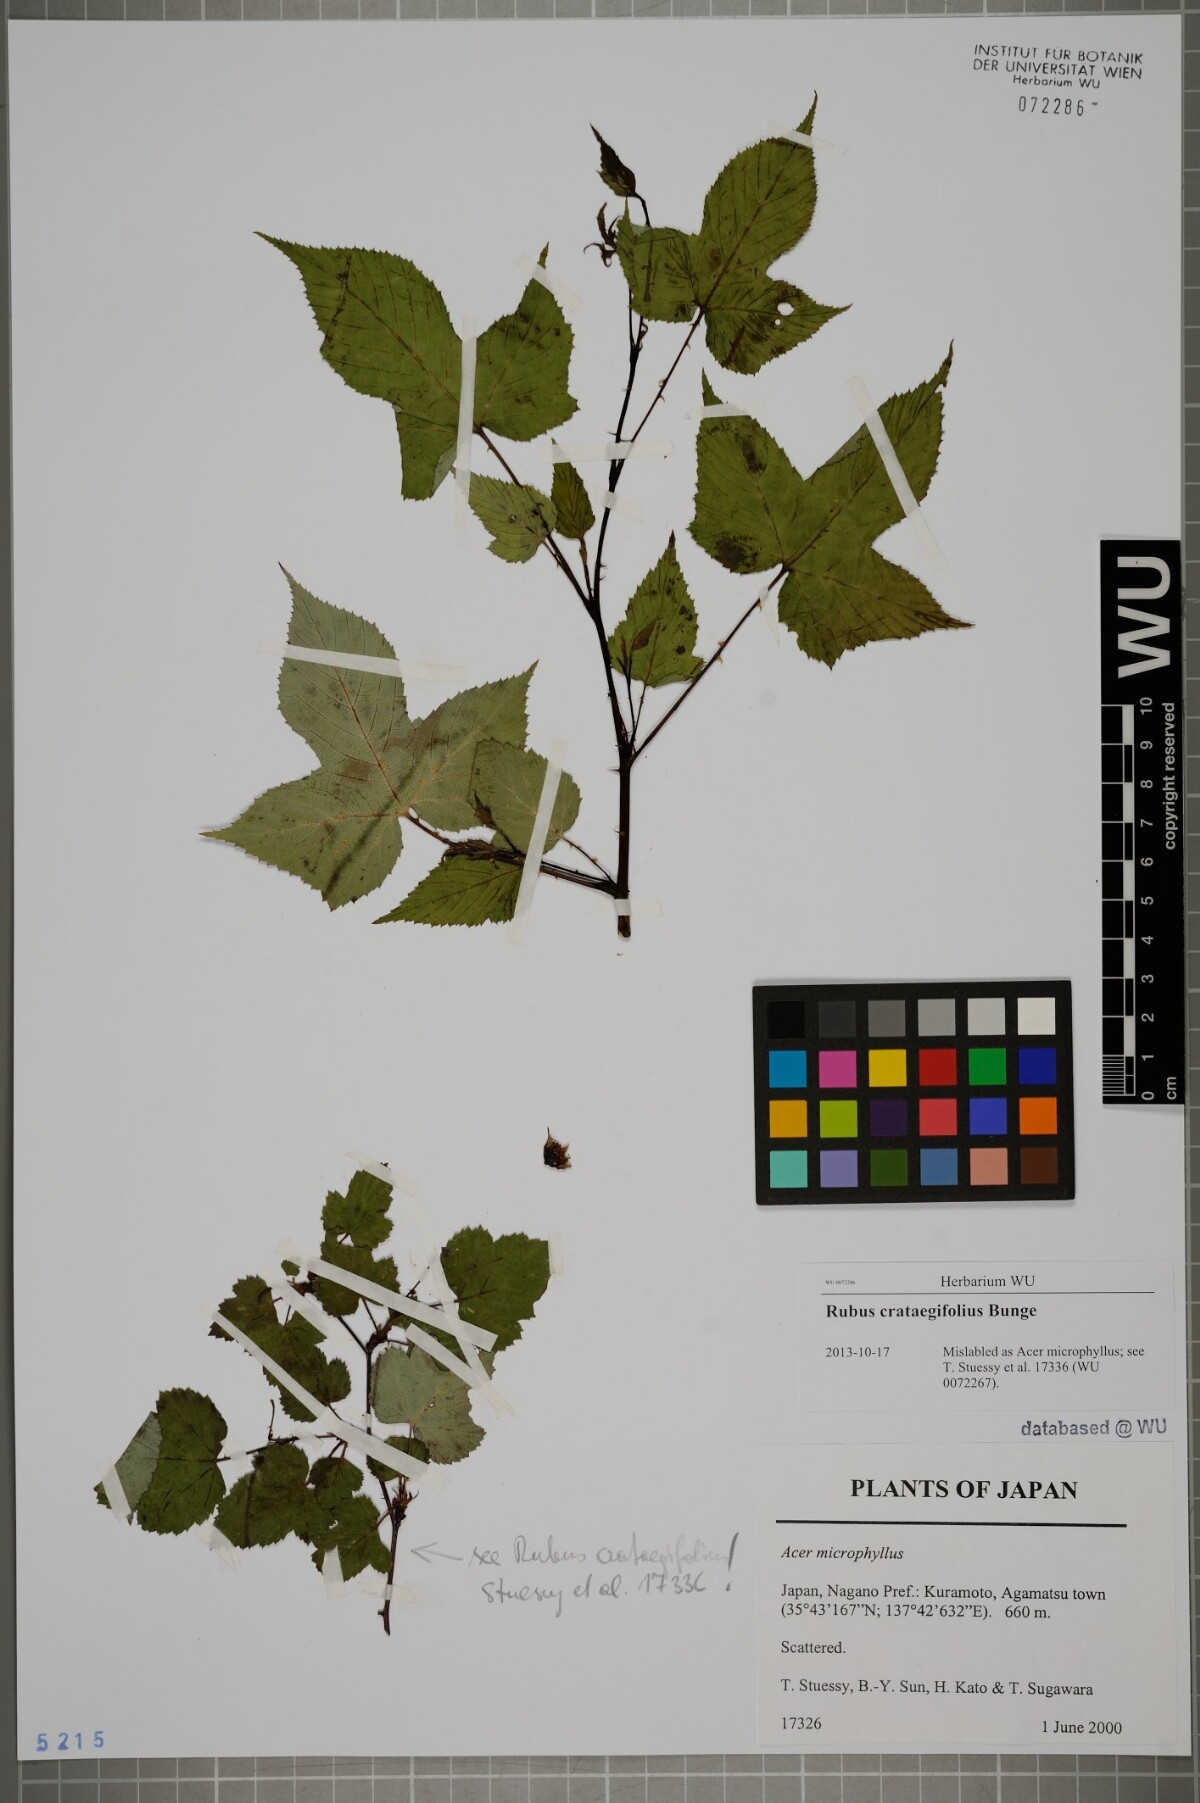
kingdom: Plantae
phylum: Tracheophyta
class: Magnoliopsida
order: Rosales
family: Rosaceae
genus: Rubus
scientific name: Rubus crataegifolius
